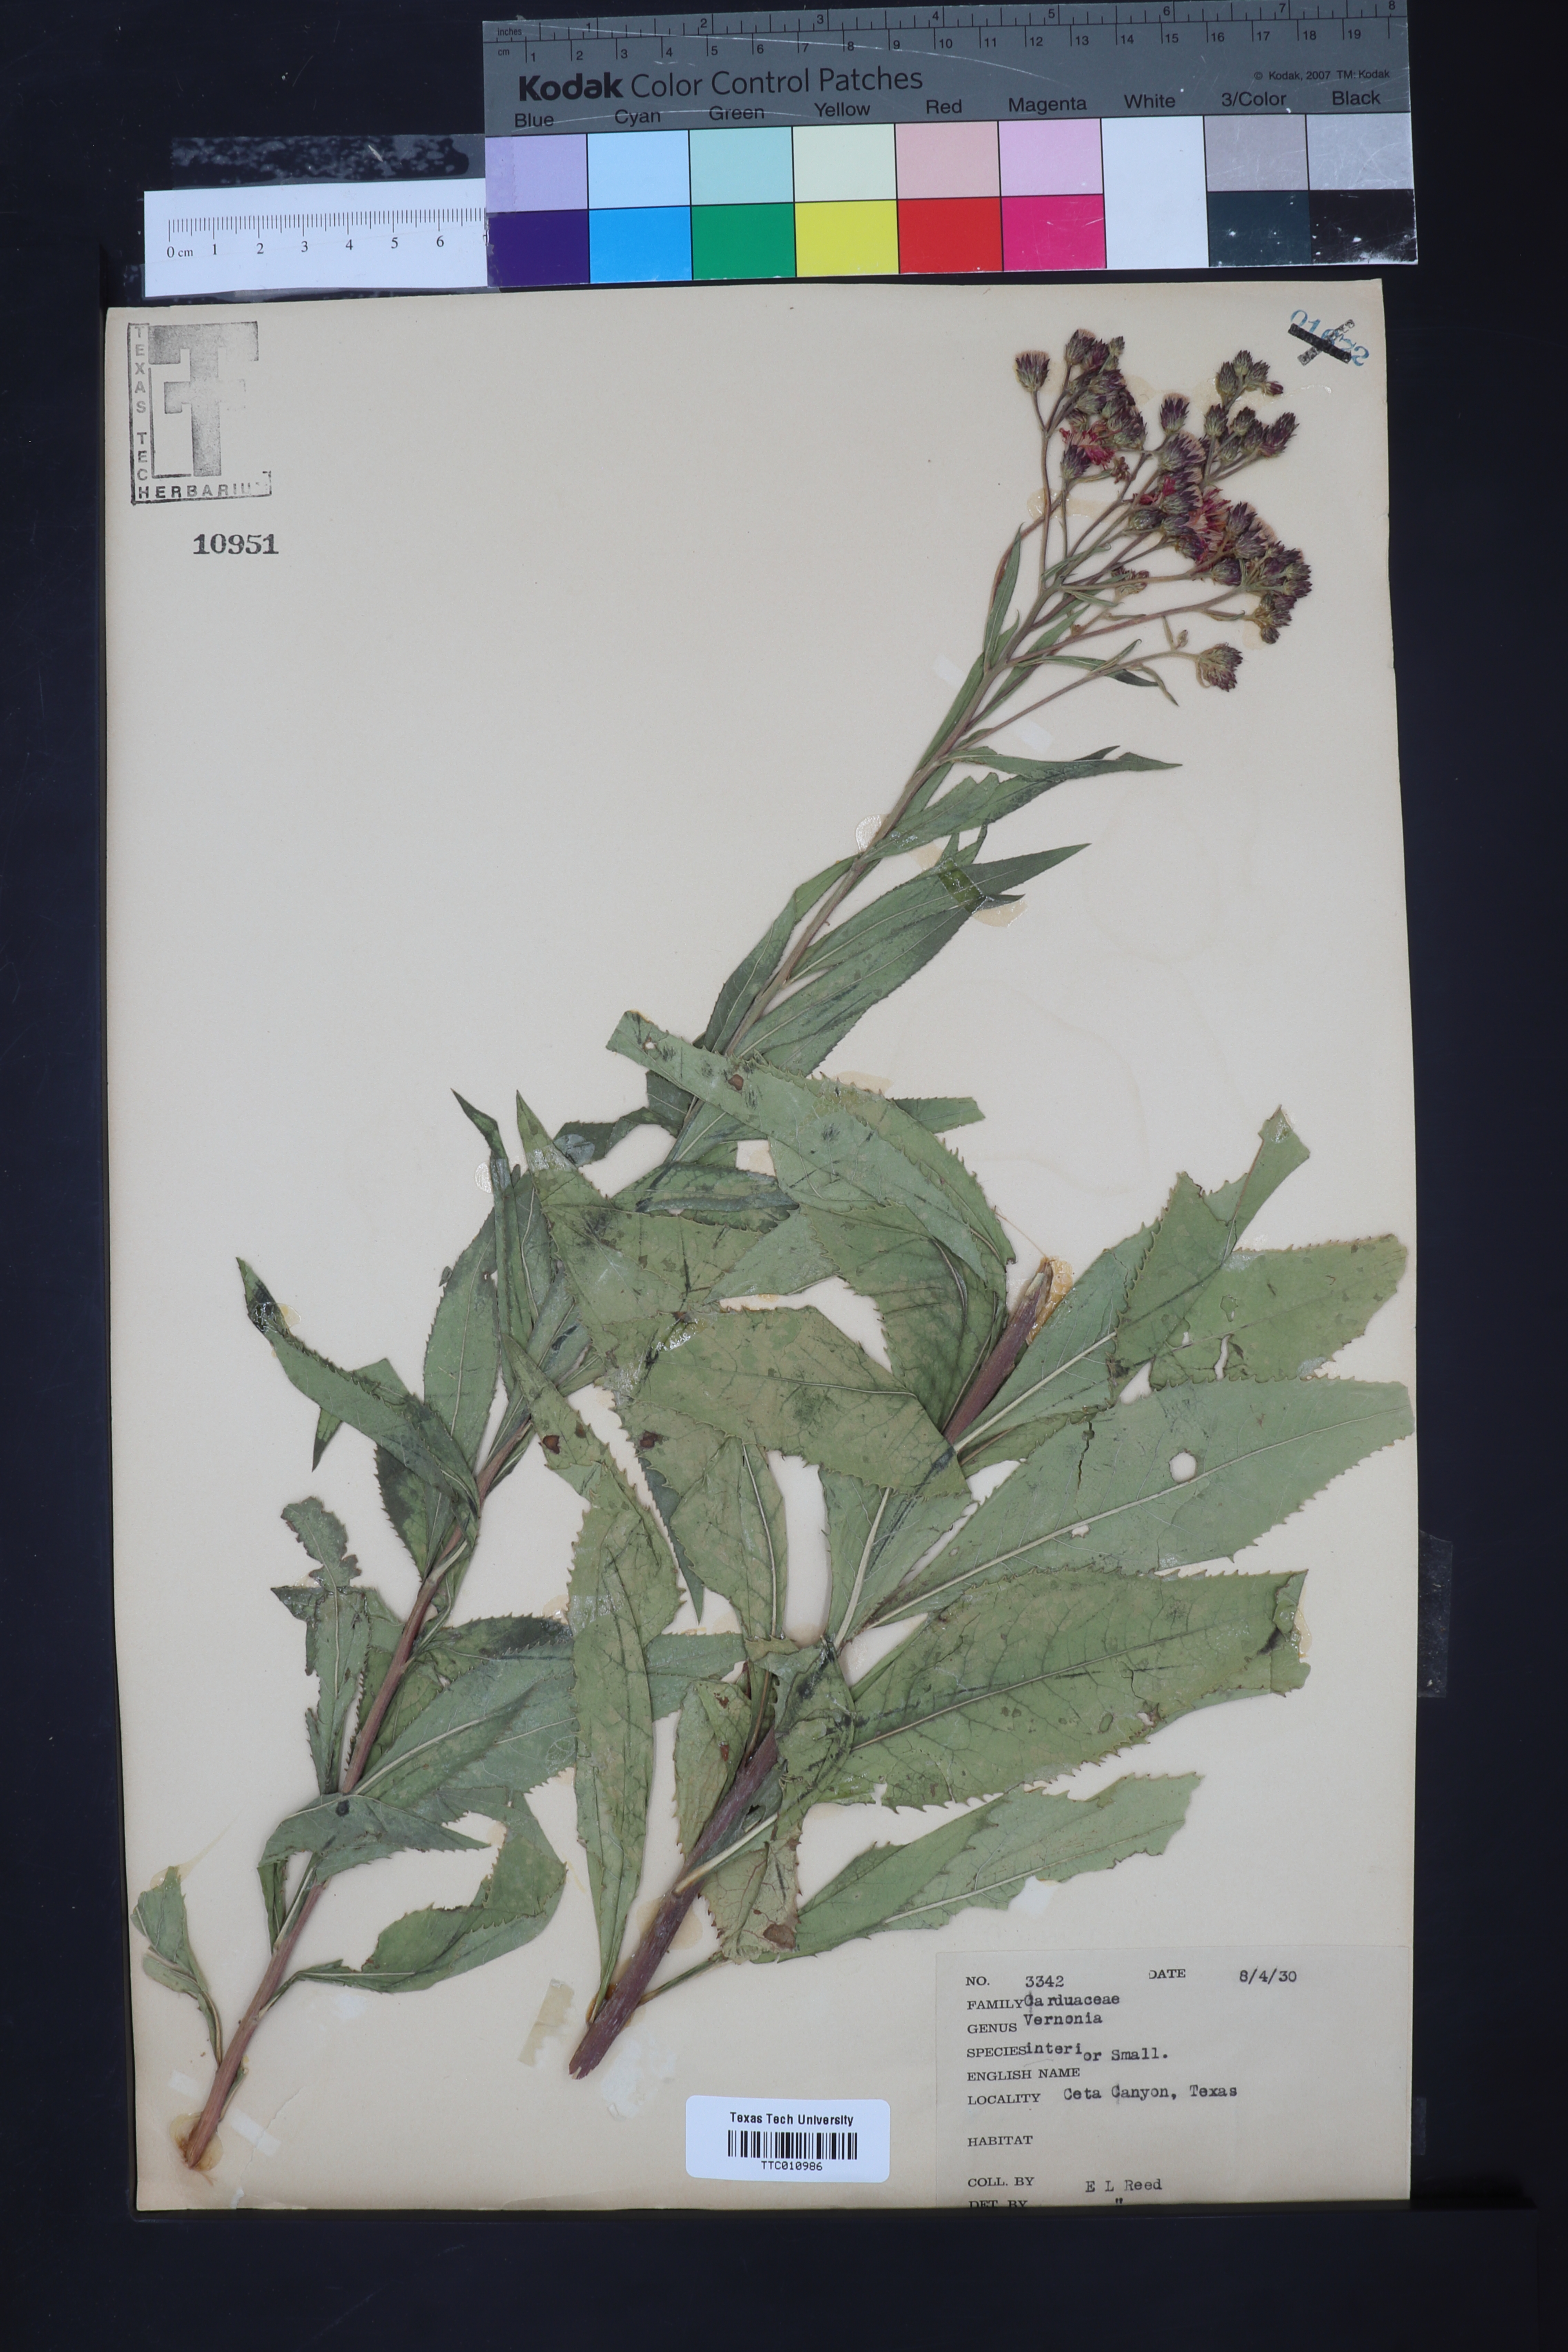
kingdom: Plantae
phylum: Tracheophyta
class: Magnoliopsida
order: Asterales
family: Asteraceae
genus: Vernonia
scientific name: Vernonia baldwinii
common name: Western ironweed
